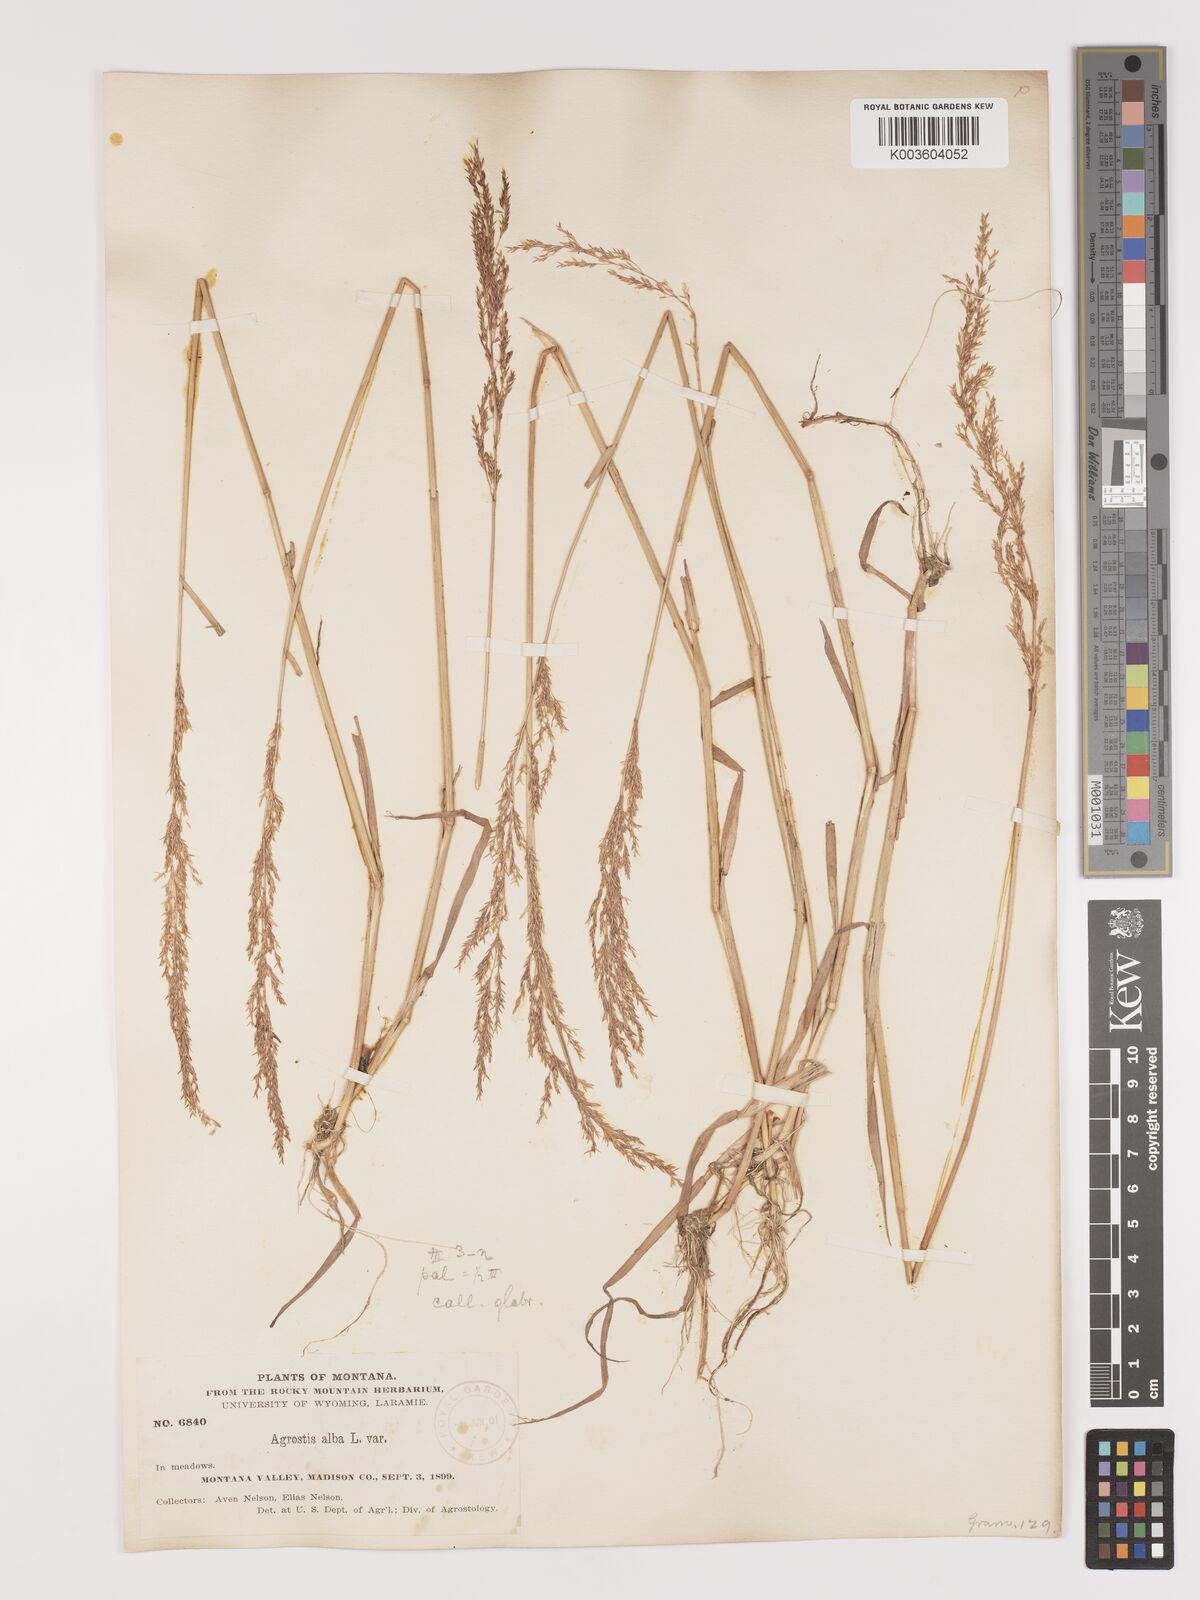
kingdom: Plantae
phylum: Tracheophyta
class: Liliopsida
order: Poales
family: Poaceae
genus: Agrostis
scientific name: Agrostis gigantea
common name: Black bent
